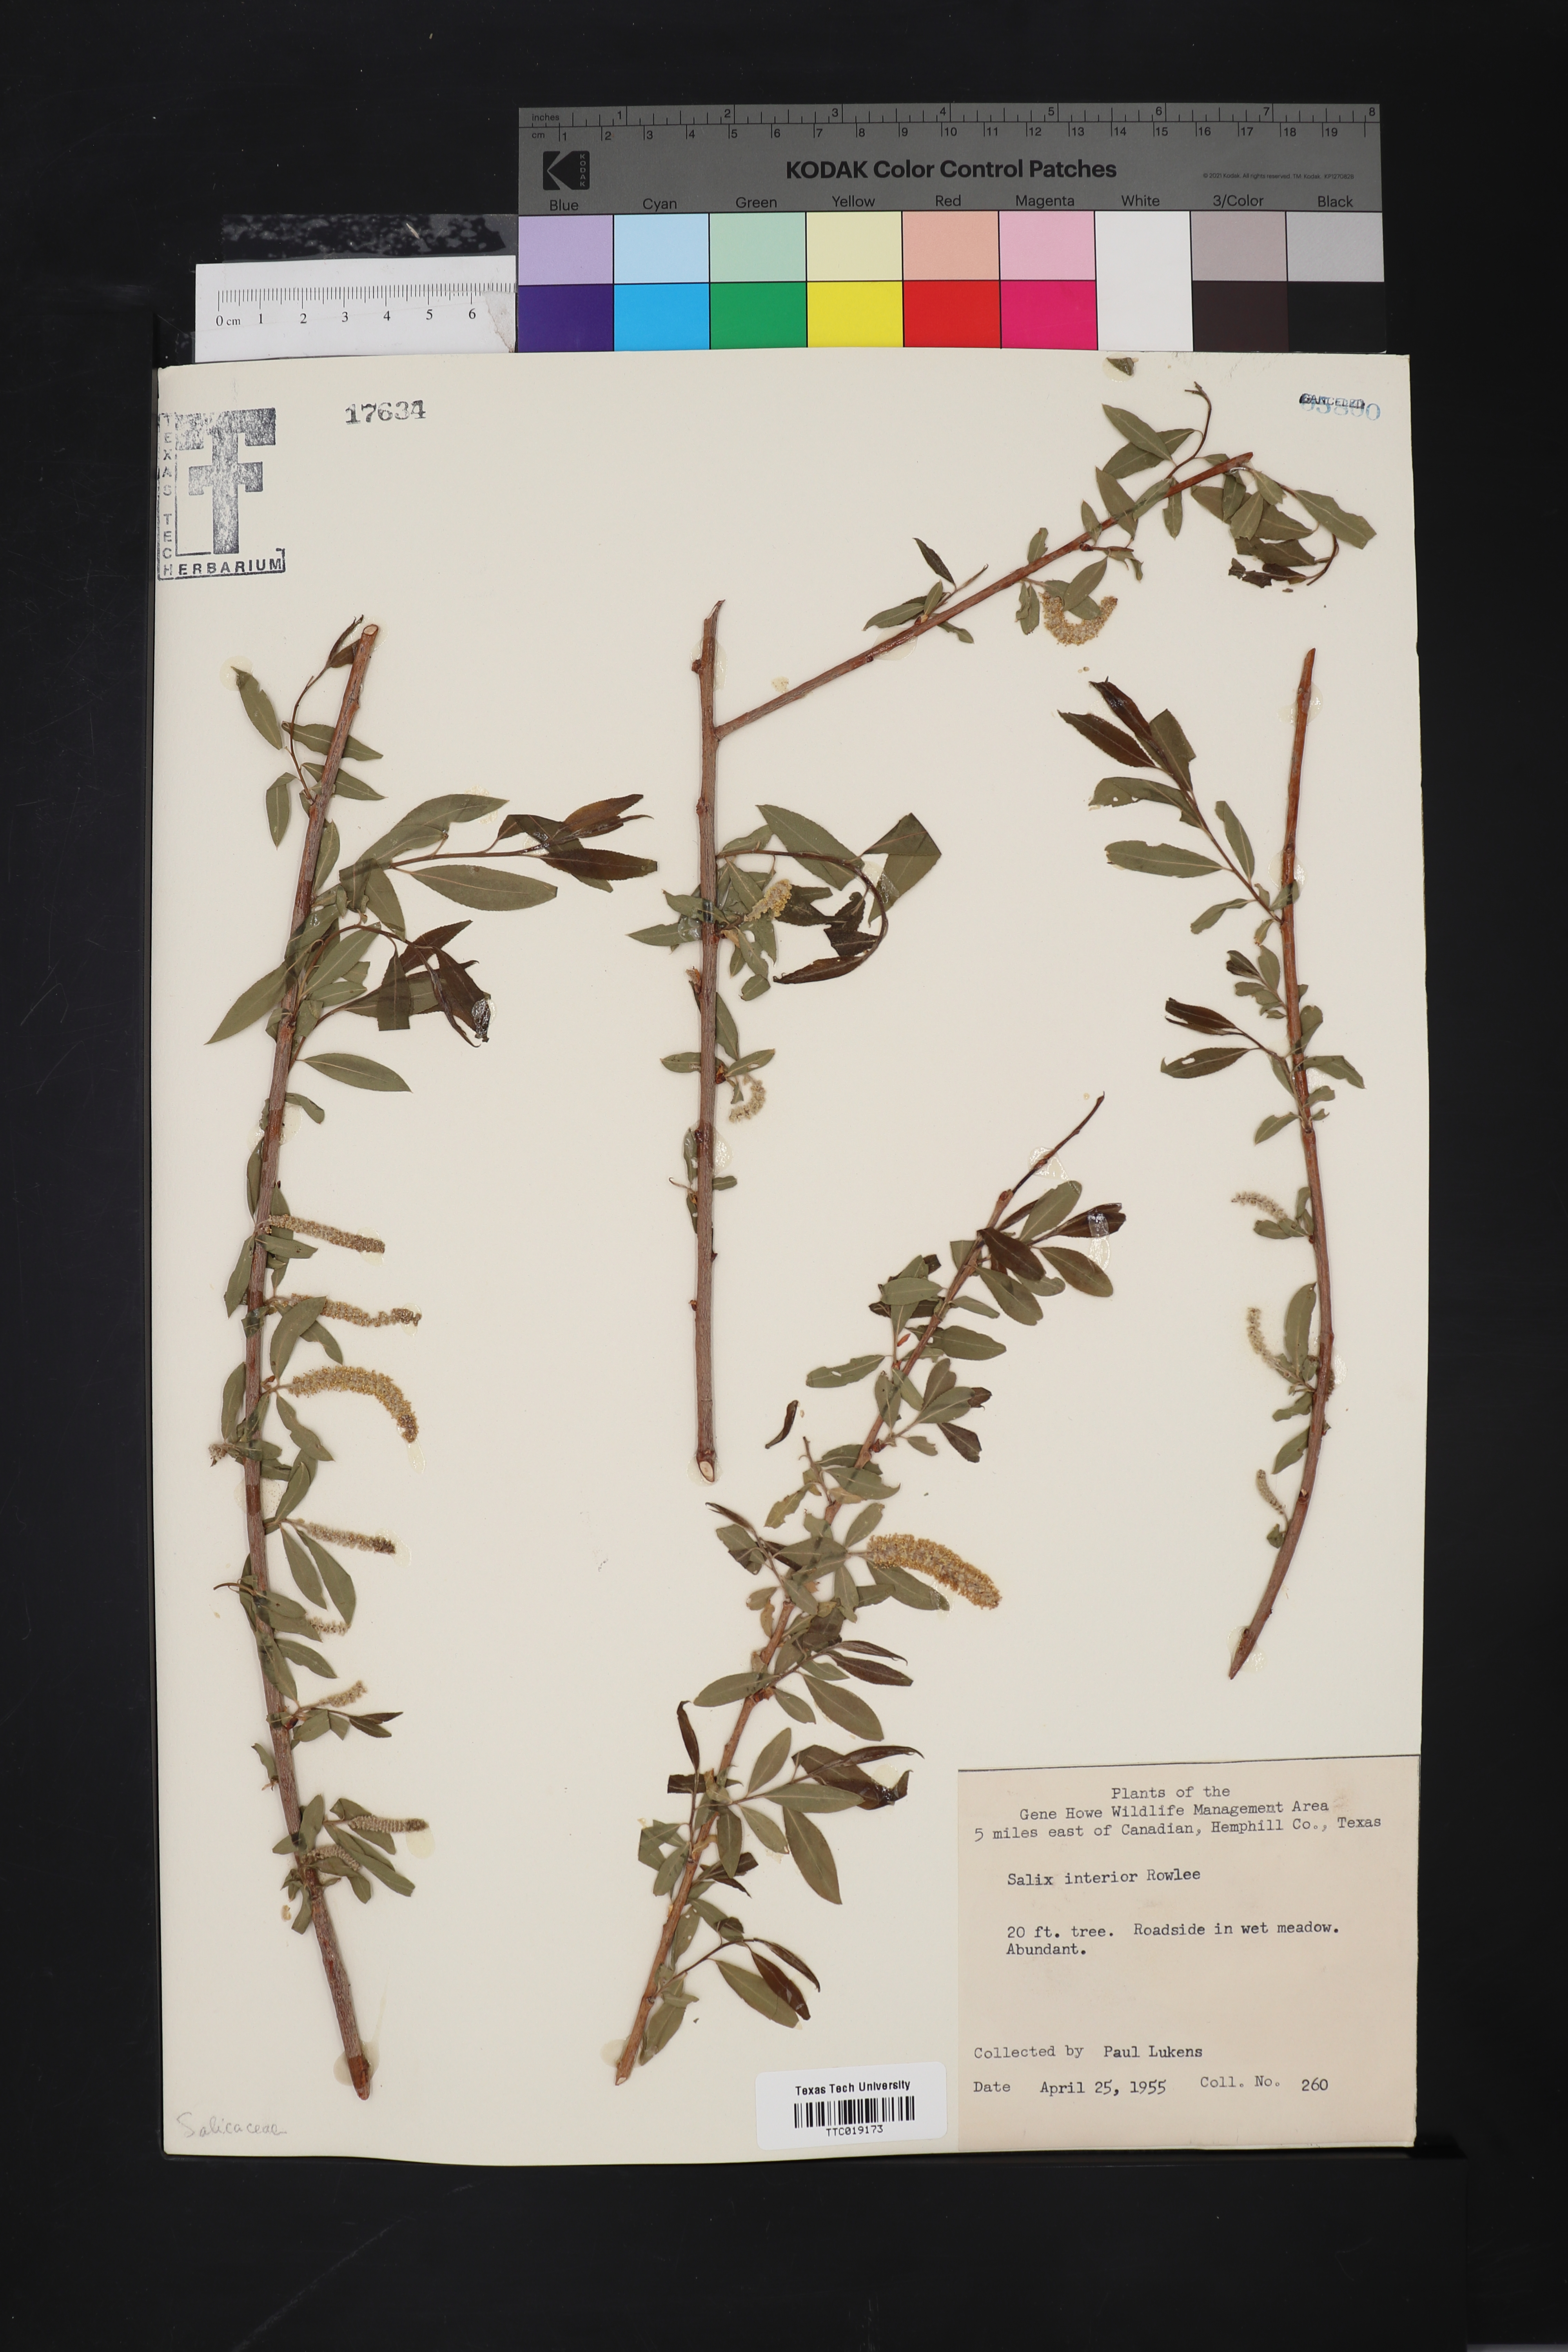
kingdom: Plantae
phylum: Tracheophyta
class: Magnoliopsida
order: Malpighiales
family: Salicaceae
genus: Salix
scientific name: Salix interior
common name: Sandbar willow
